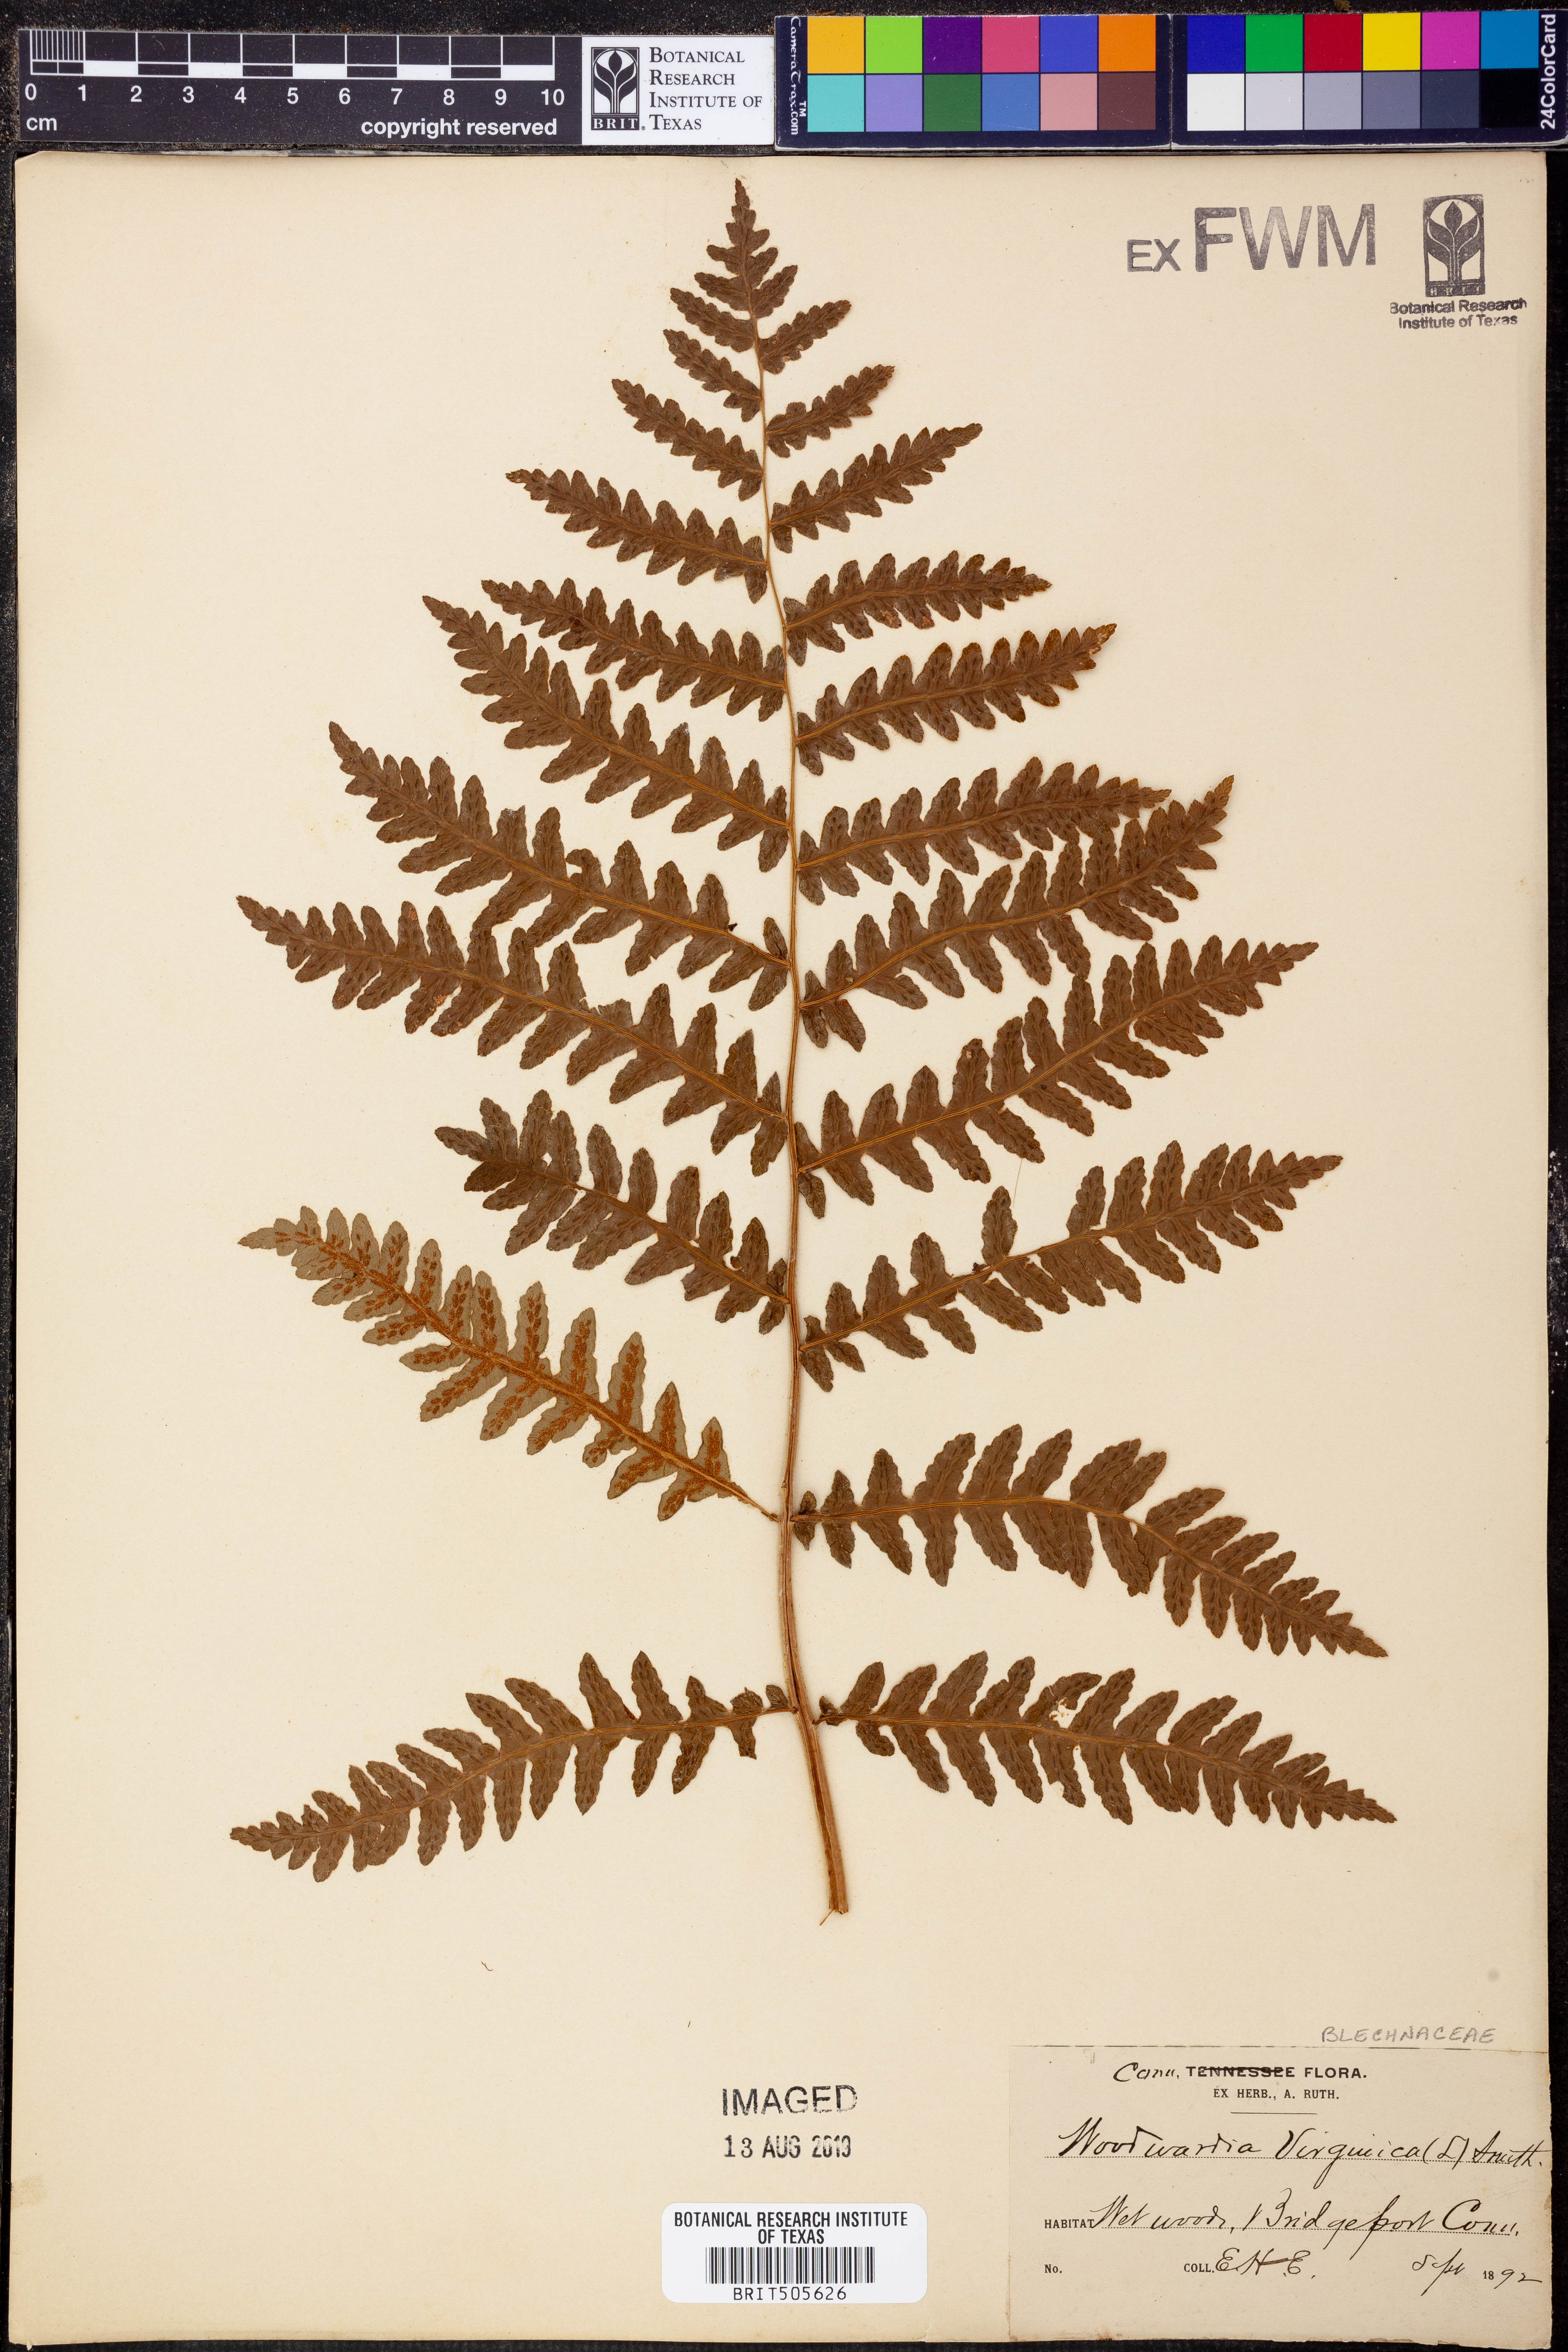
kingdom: Plantae
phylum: Tracheophyta
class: Polypodiopsida
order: Polypodiales
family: Blechnaceae
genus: Anchistea
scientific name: Anchistea virginica
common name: Virginia chain fern
